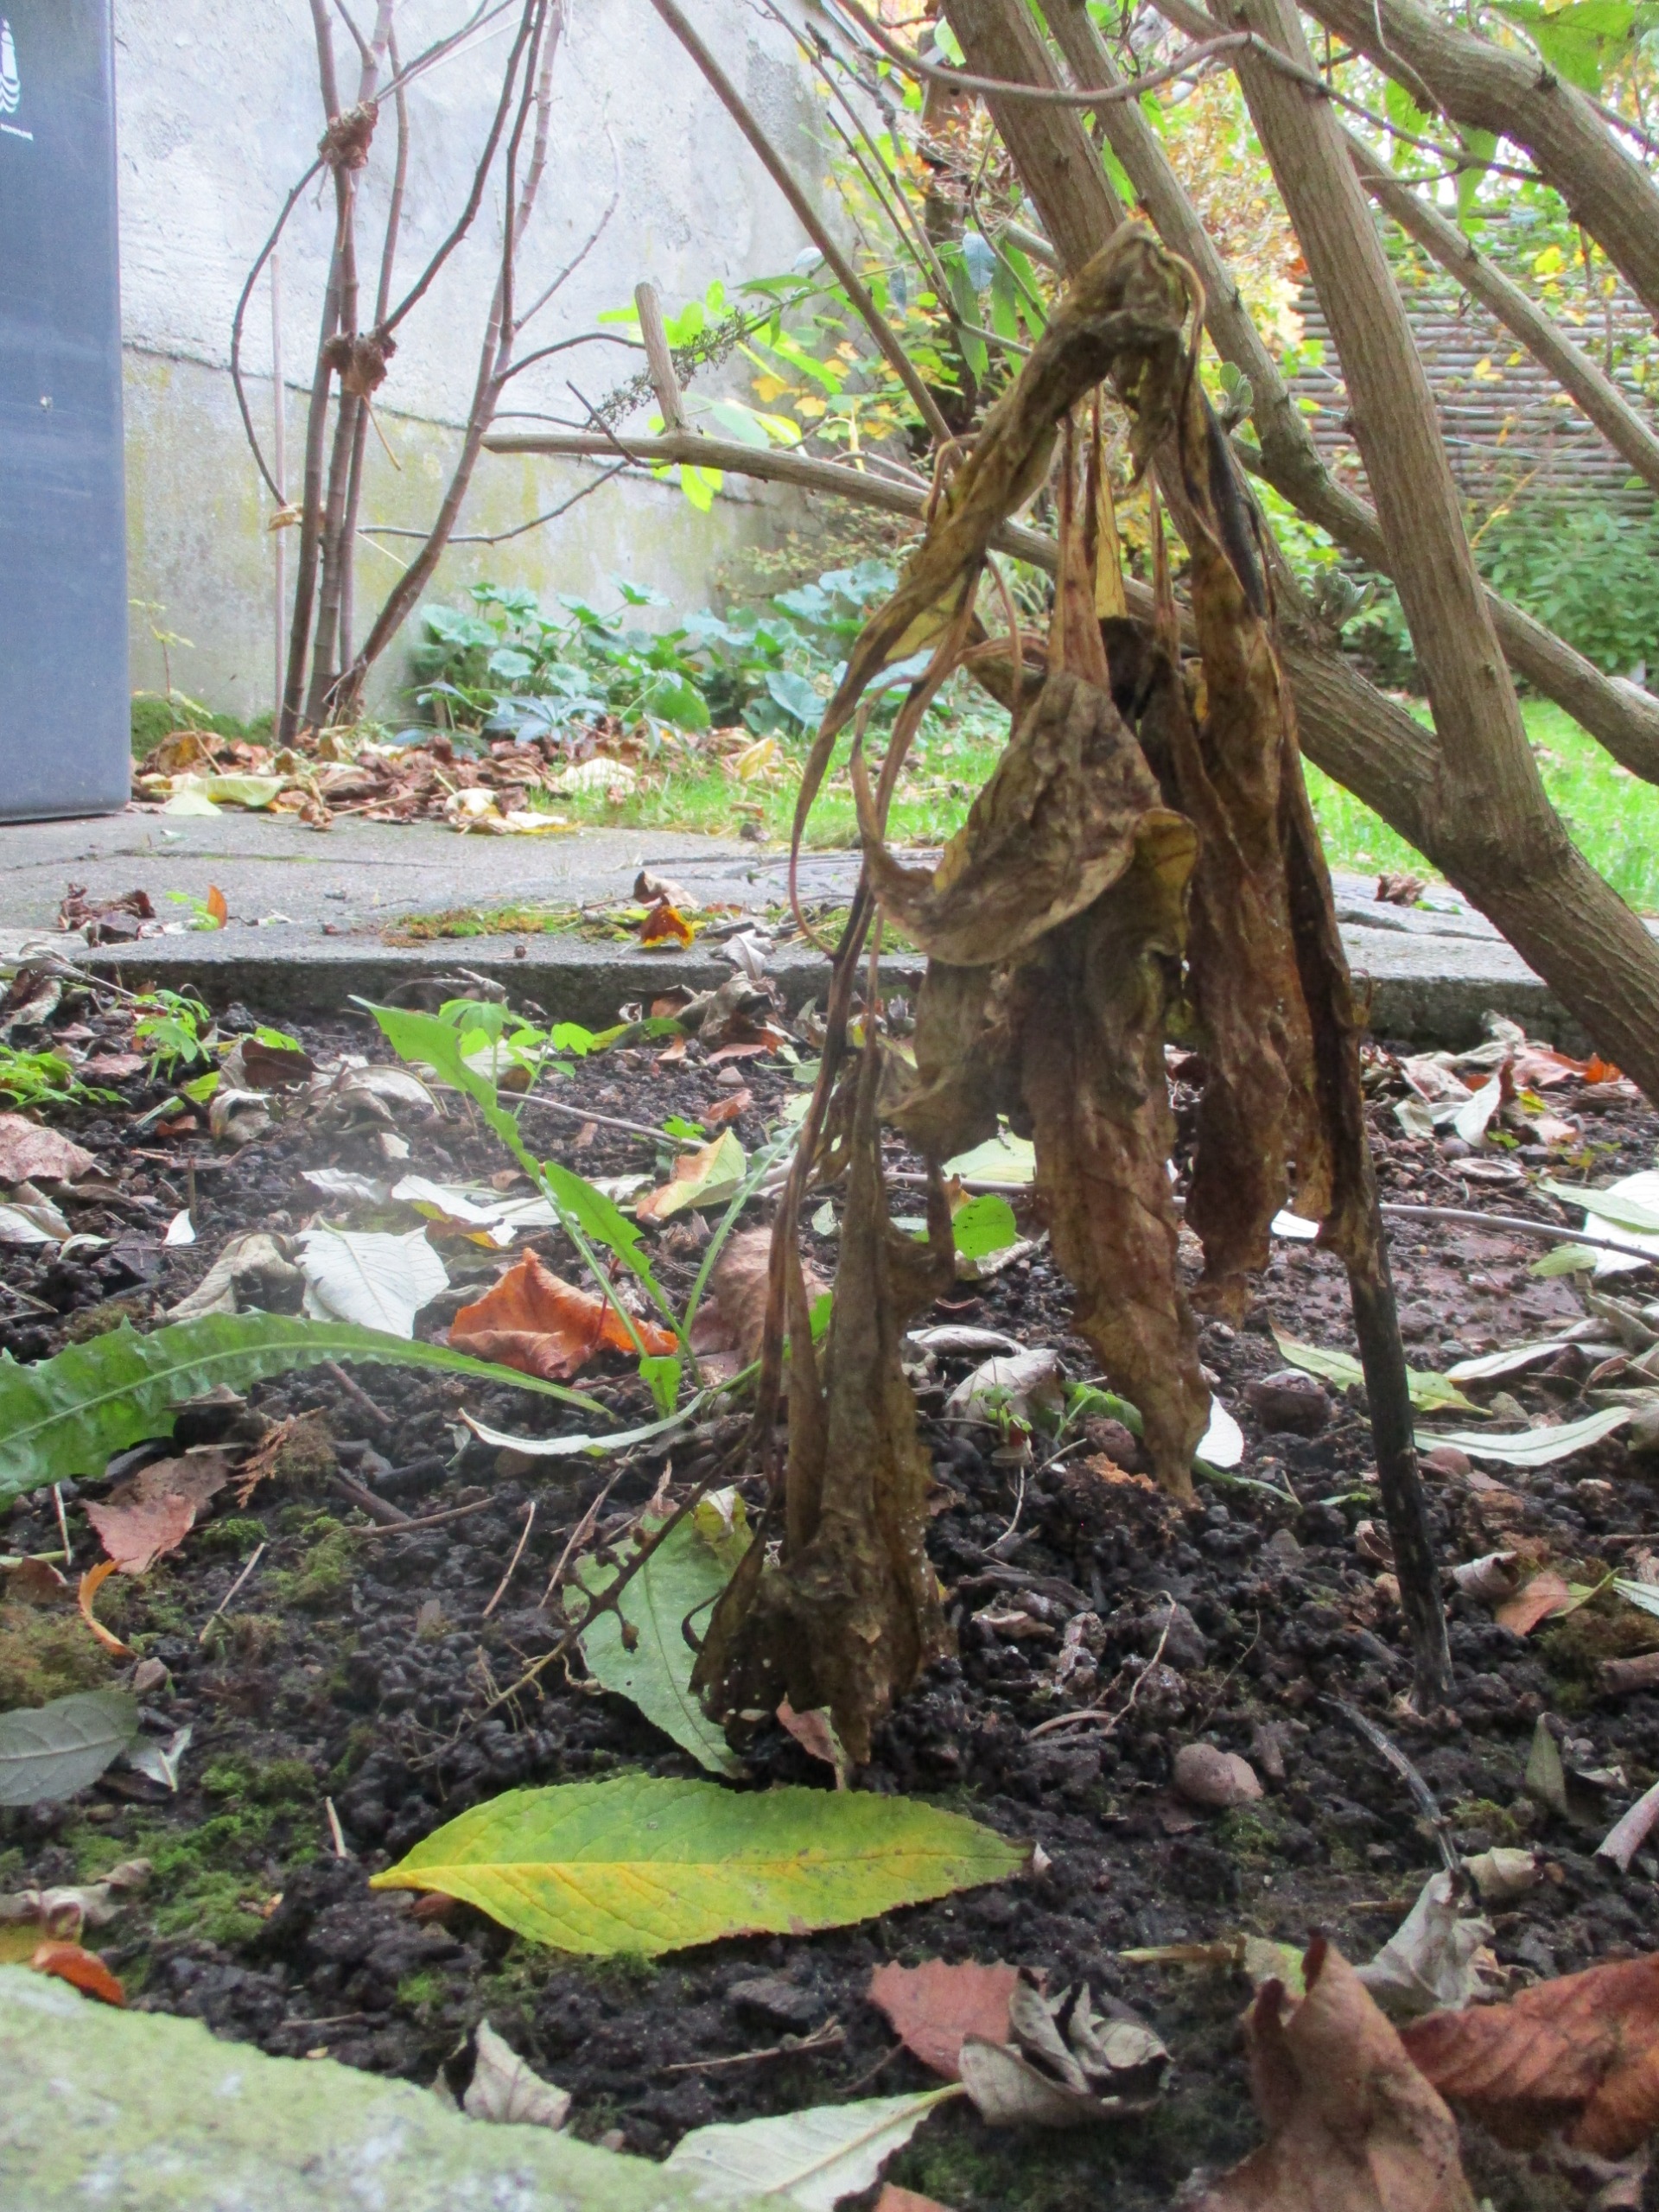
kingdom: Plantae
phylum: Tracheophyta
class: Magnoliopsida
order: Caryophyllales
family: Phytolaccaceae
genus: Phytolacca
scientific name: Phytolacca acinosa
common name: Asiatisk kermesbær
